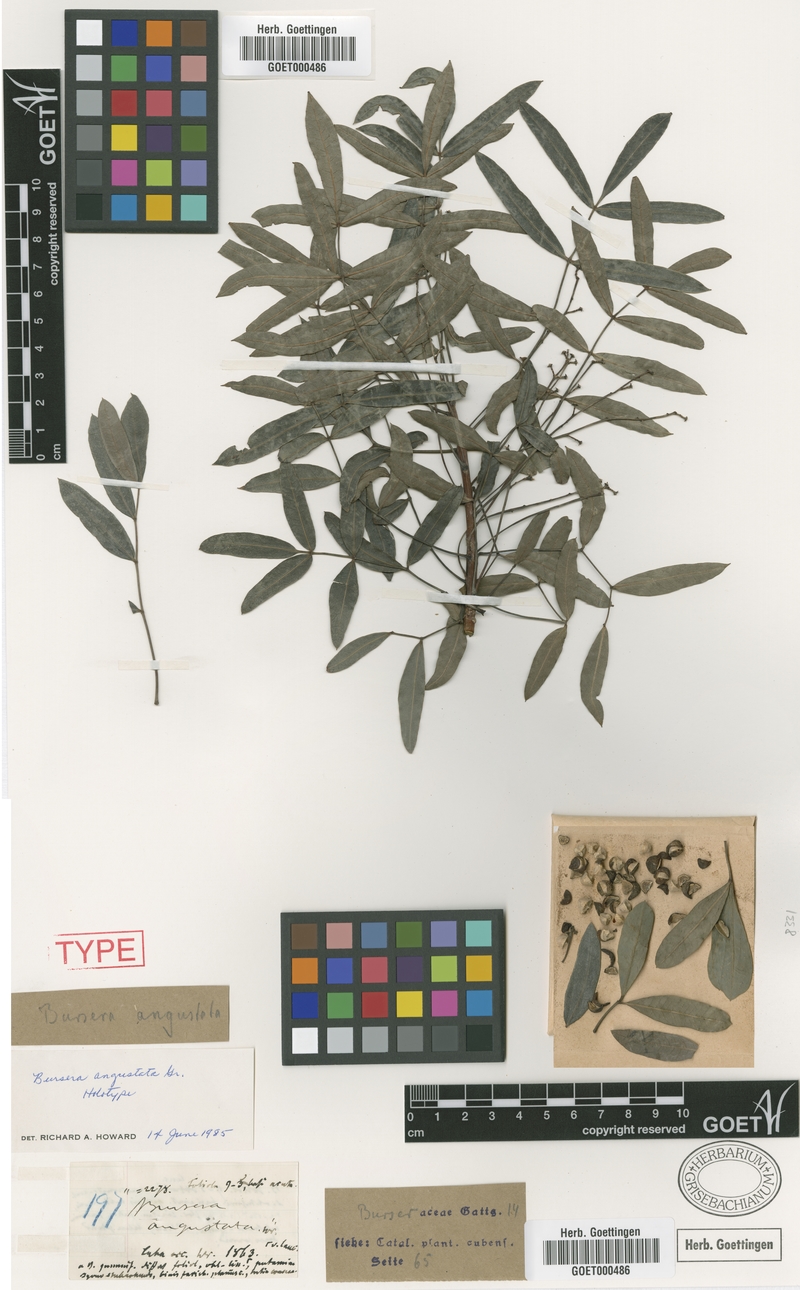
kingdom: Plantae
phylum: Tracheophyta
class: Magnoliopsida
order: Sapindales
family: Burseraceae
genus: Bursera
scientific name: Bursera angustata
